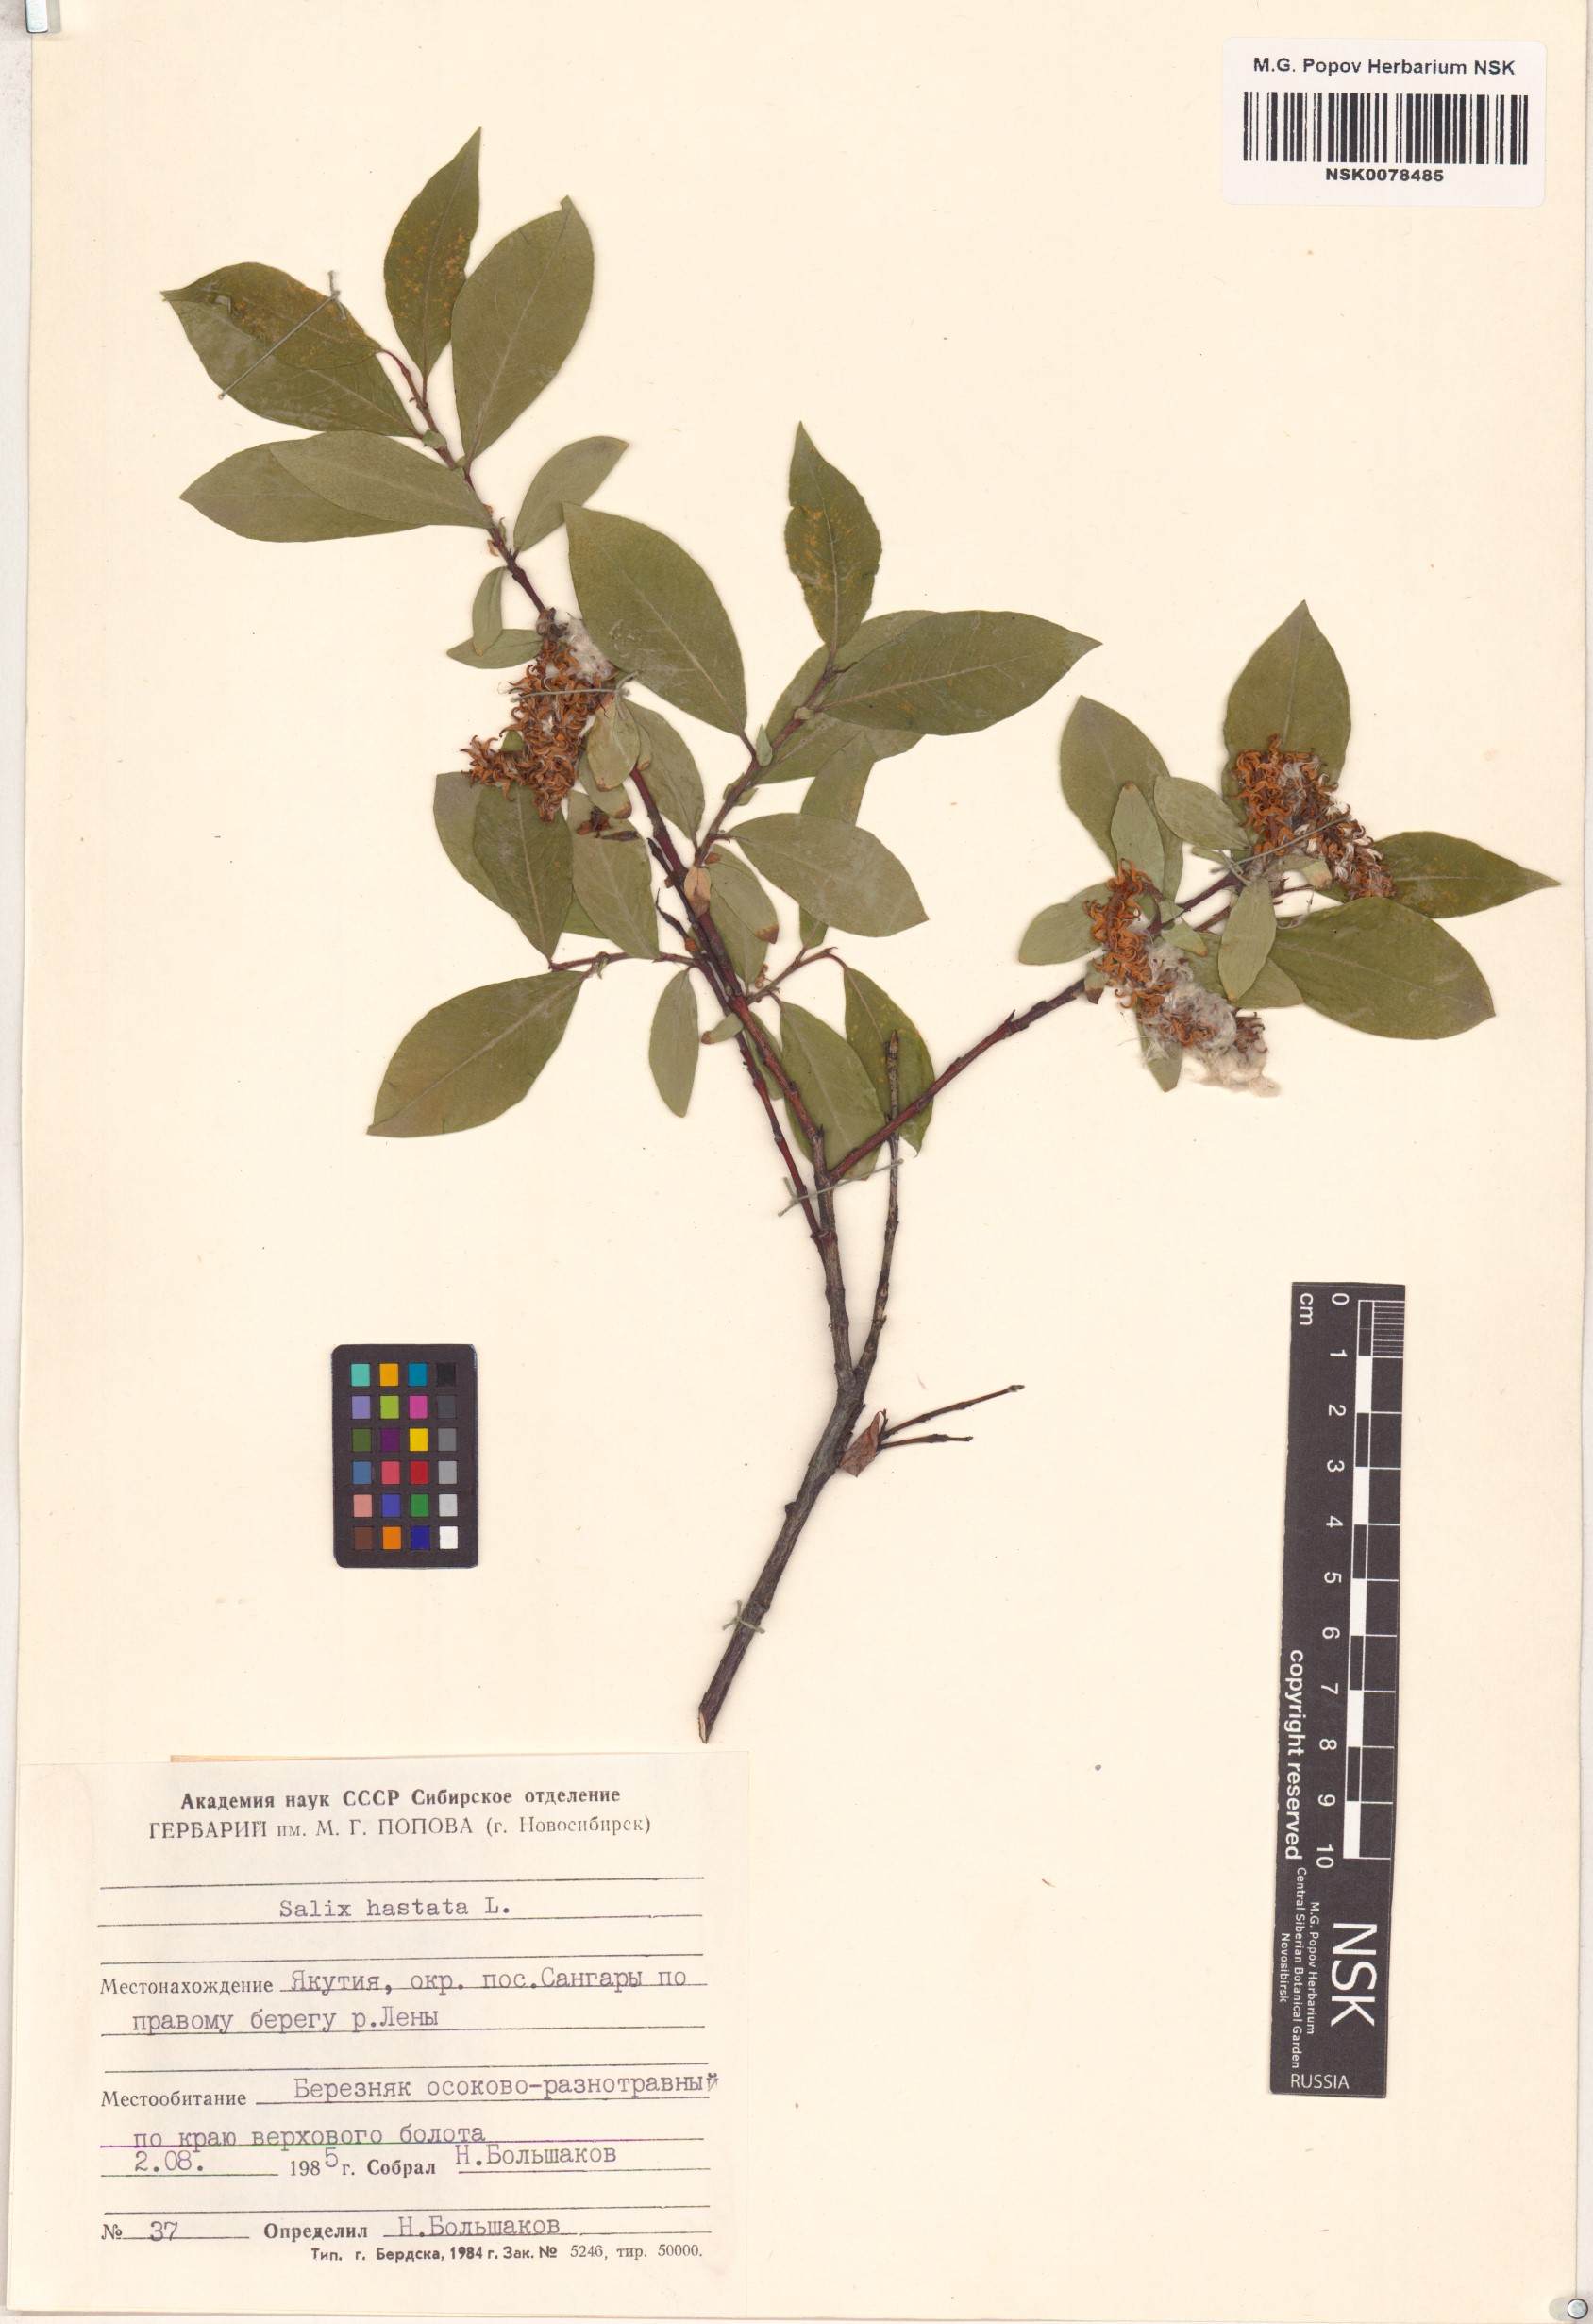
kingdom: Plantae
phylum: Tracheophyta
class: Magnoliopsida
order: Malpighiales
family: Salicaceae
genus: Salix
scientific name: Salix hastata
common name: Halberd willow
